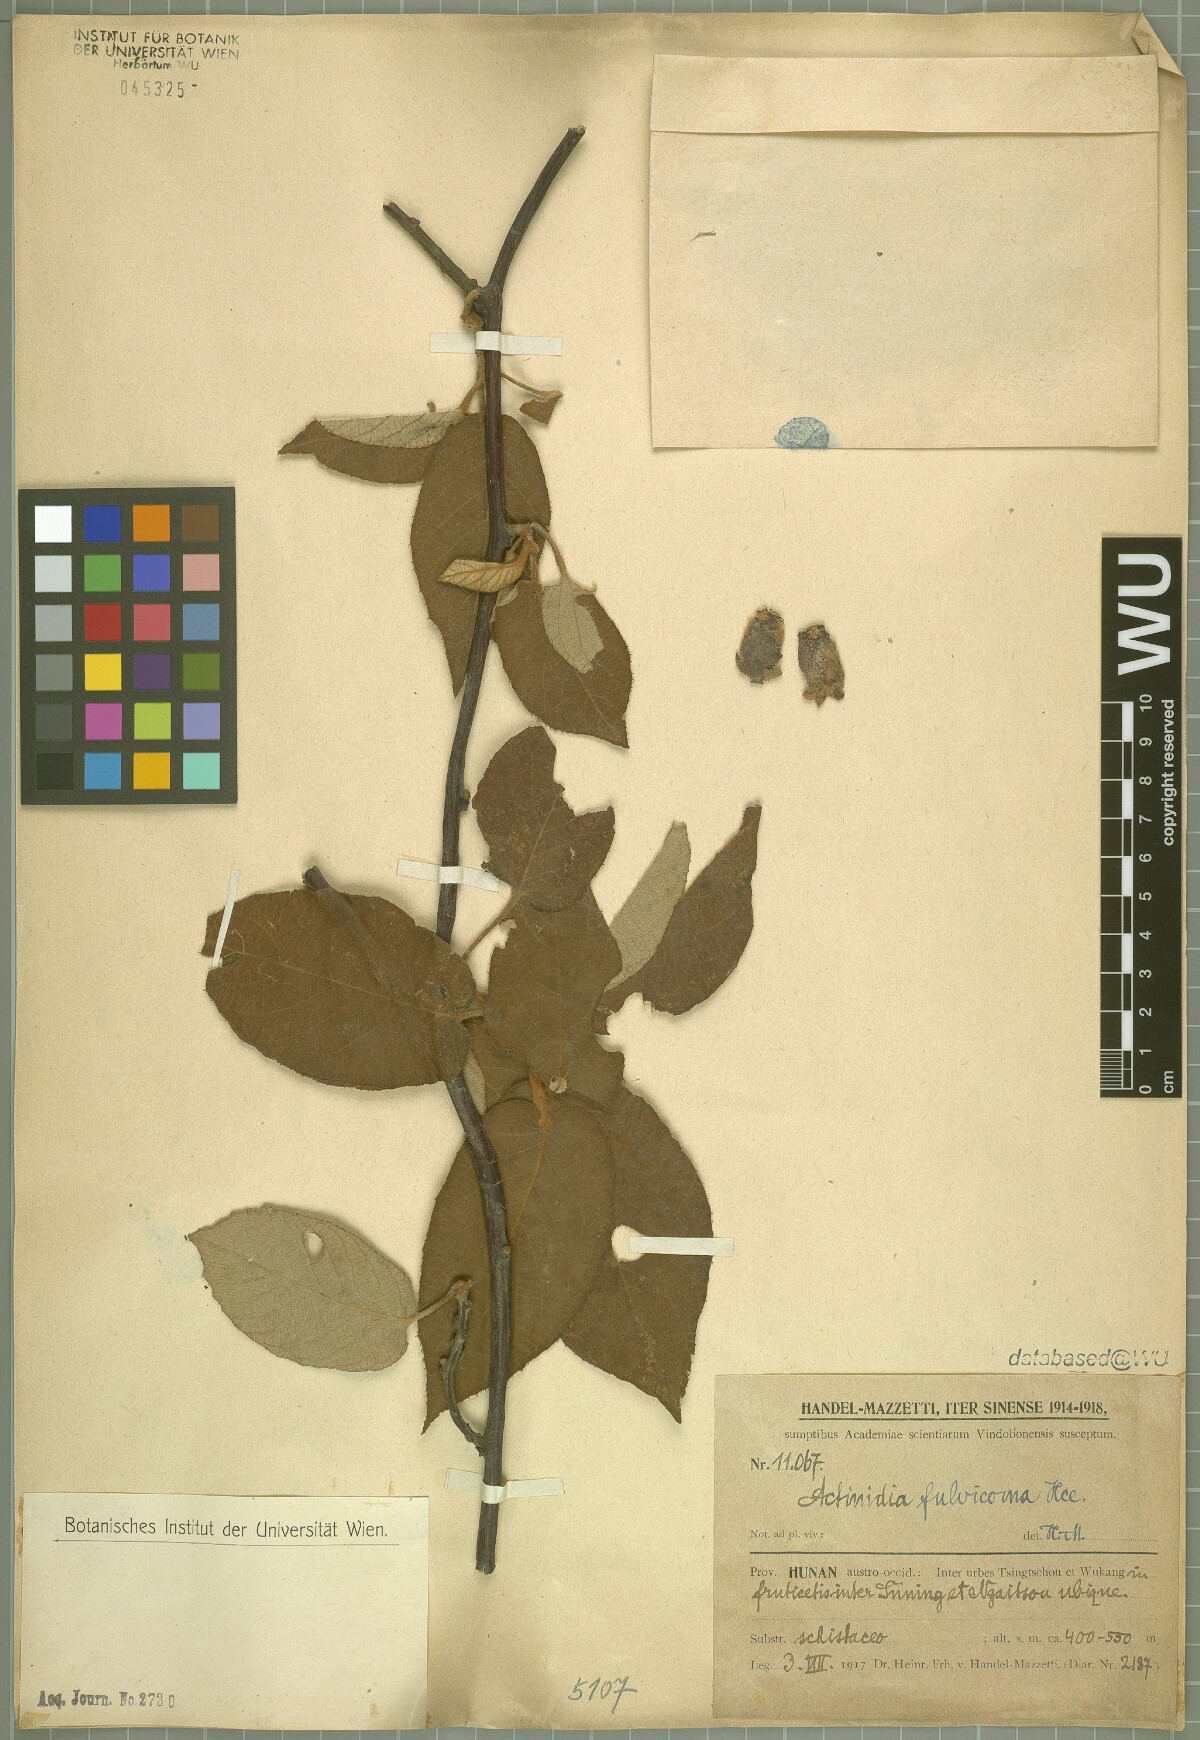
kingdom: Plantae
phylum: Tracheophyta
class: Magnoliopsida
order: Ericales
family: Actinidiaceae
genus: Actinidia
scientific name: Actinidia fulvicoma
